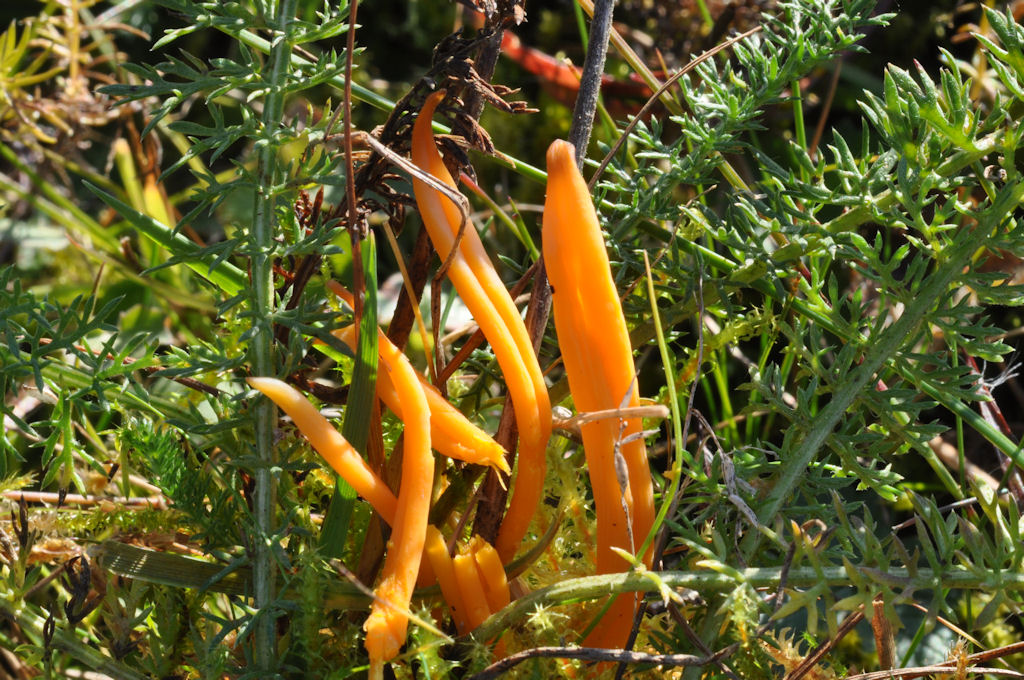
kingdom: Fungi
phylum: Basidiomycota
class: Agaricomycetes
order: Agaricales
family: Clavariaceae
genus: Clavulinopsis
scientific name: Clavulinopsis luteoalba
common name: abrikos-køllesvamp
